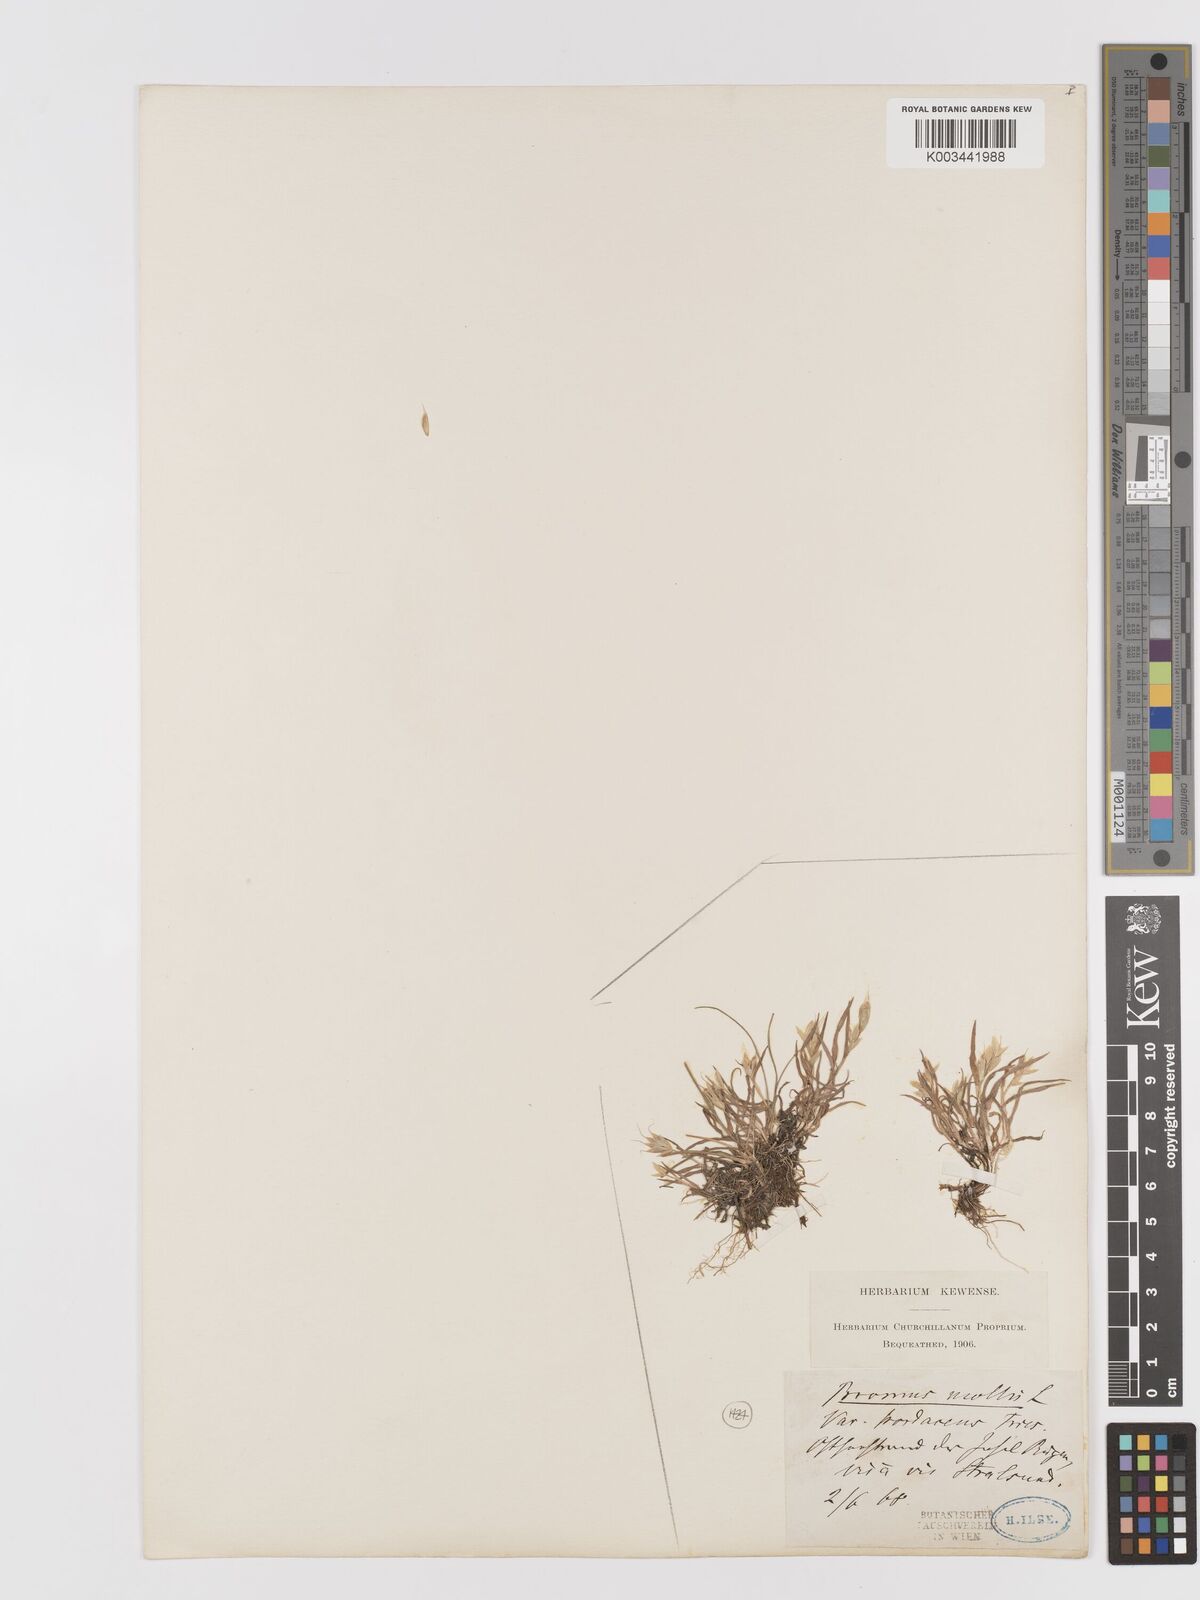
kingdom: Plantae
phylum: Tracheophyta
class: Liliopsida
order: Poales
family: Poaceae
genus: Bromus
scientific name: Bromus hordeaceus
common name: Soft brome
